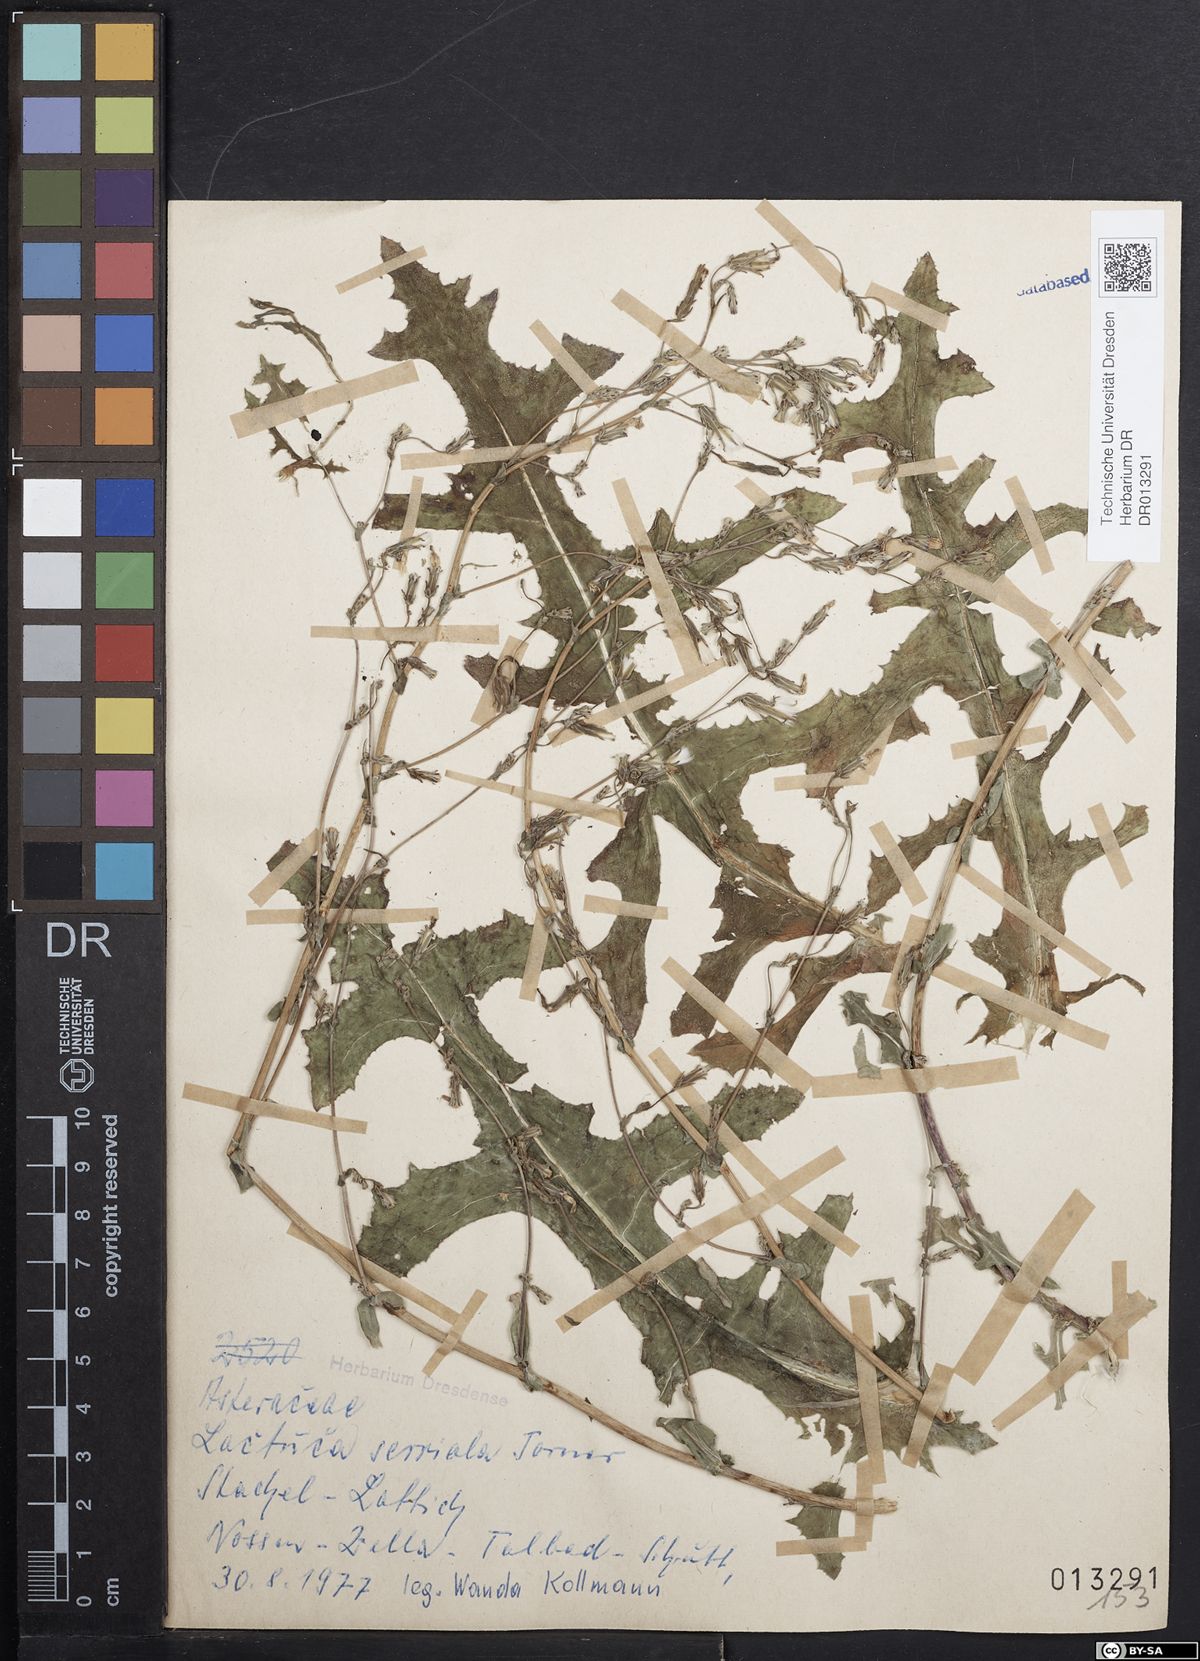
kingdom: Plantae
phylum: Tracheophyta
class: Magnoliopsida
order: Asterales
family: Asteraceae
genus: Lactuca
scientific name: Lactuca serriola
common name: Prickly lettuce
